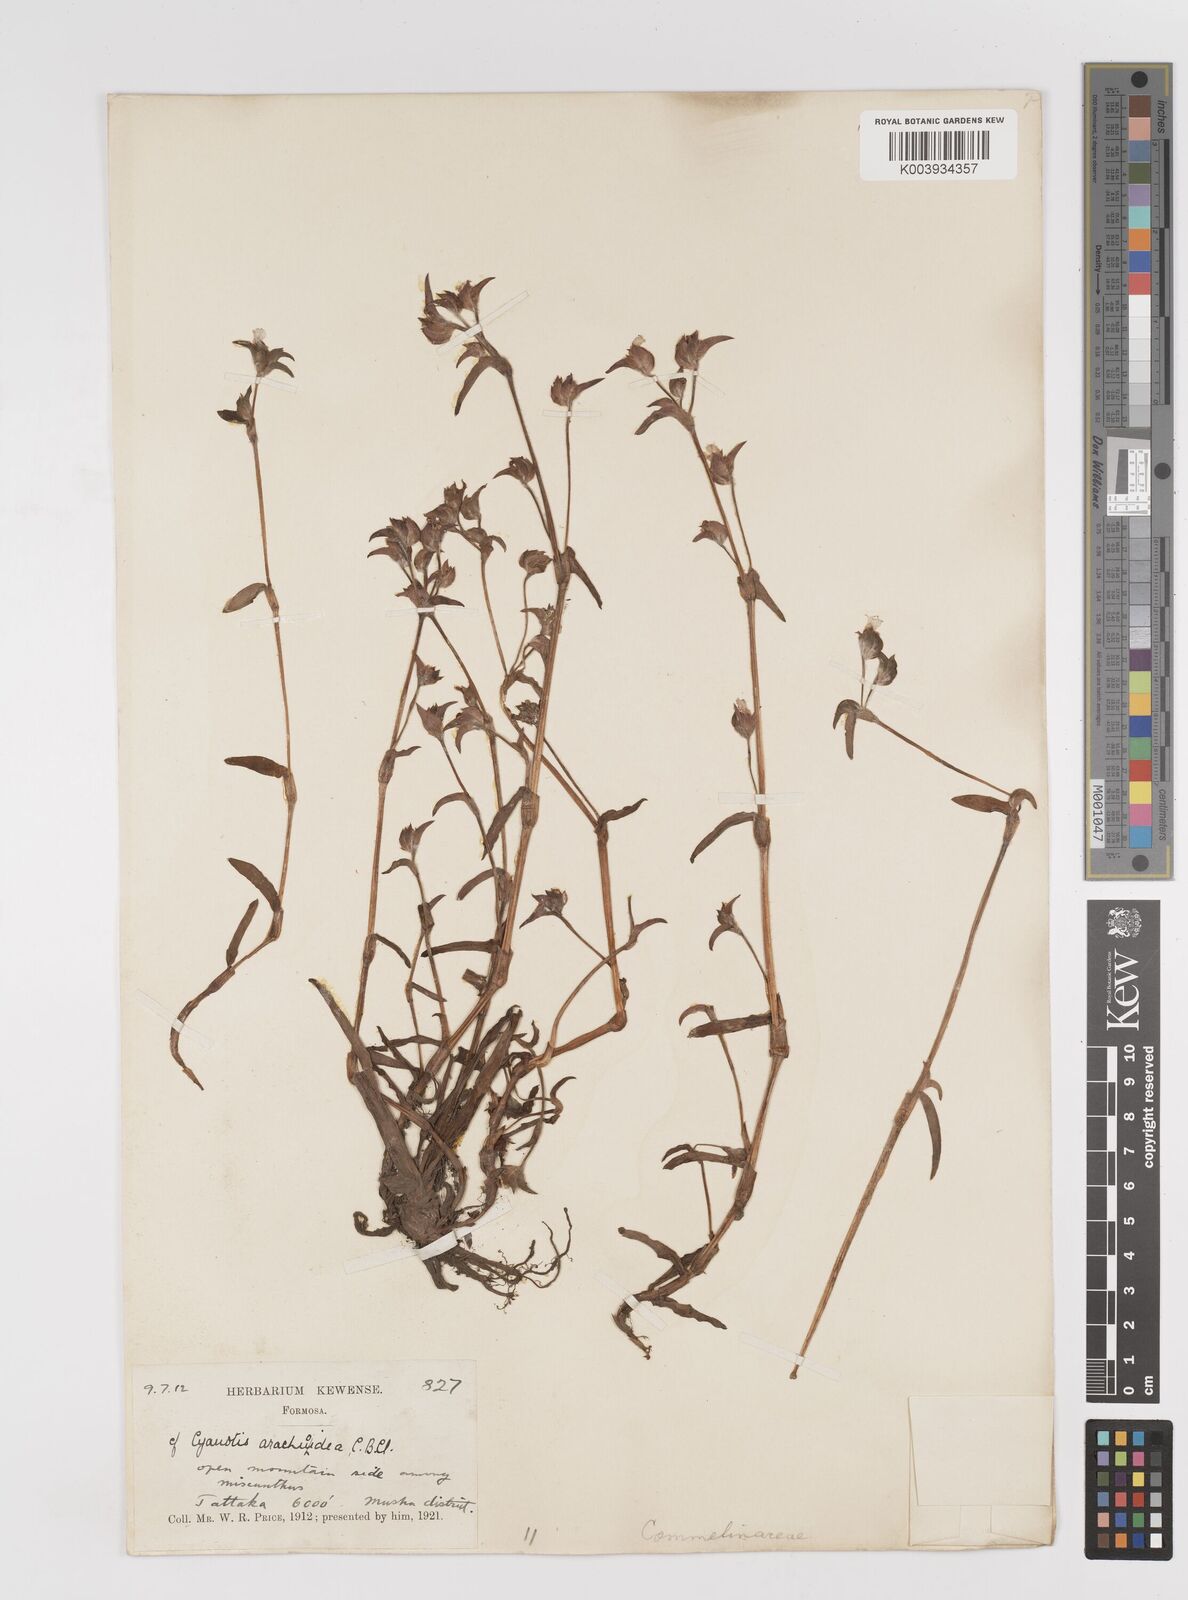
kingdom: Plantae
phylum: Tracheophyta
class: Liliopsida
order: Commelinales
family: Commelinaceae
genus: Cyanotis
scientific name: Cyanotis arachnoidea
